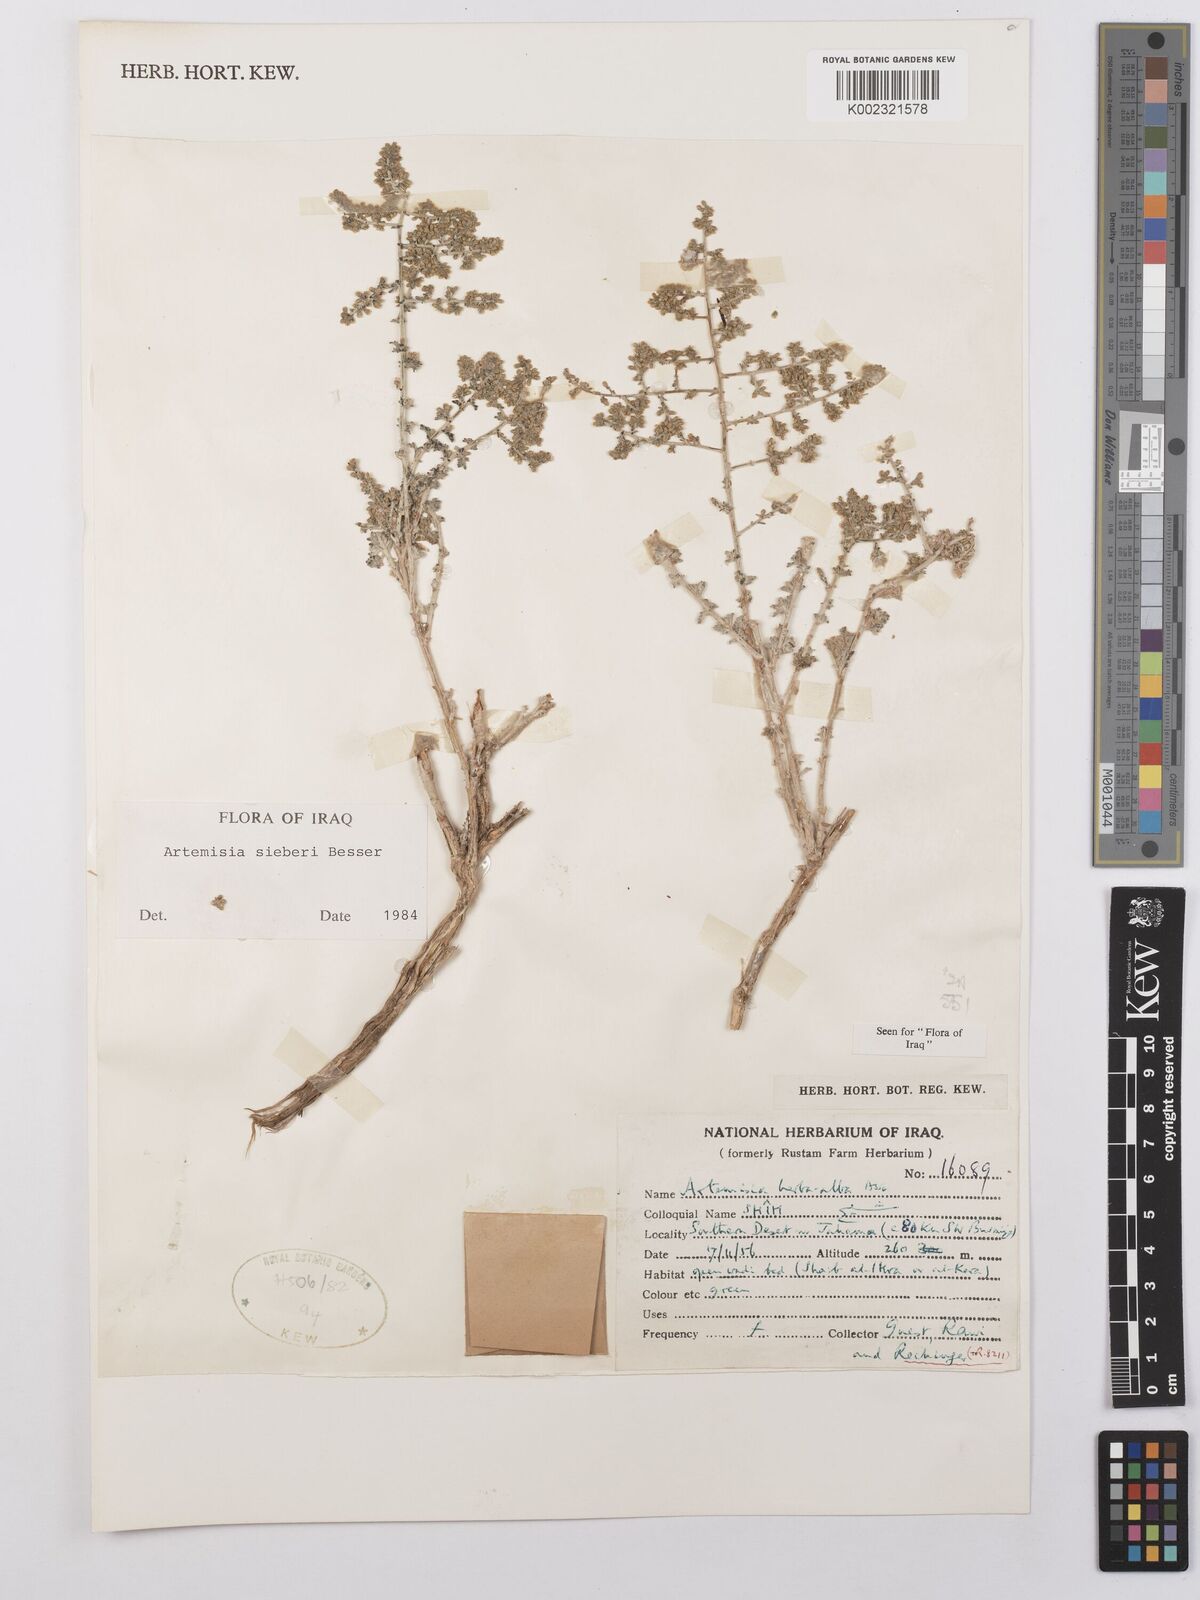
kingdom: Plantae
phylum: Tracheophyta
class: Magnoliopsida
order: Asterales
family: Asteraceae
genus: Artemisia
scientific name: Artemisia sieberi
